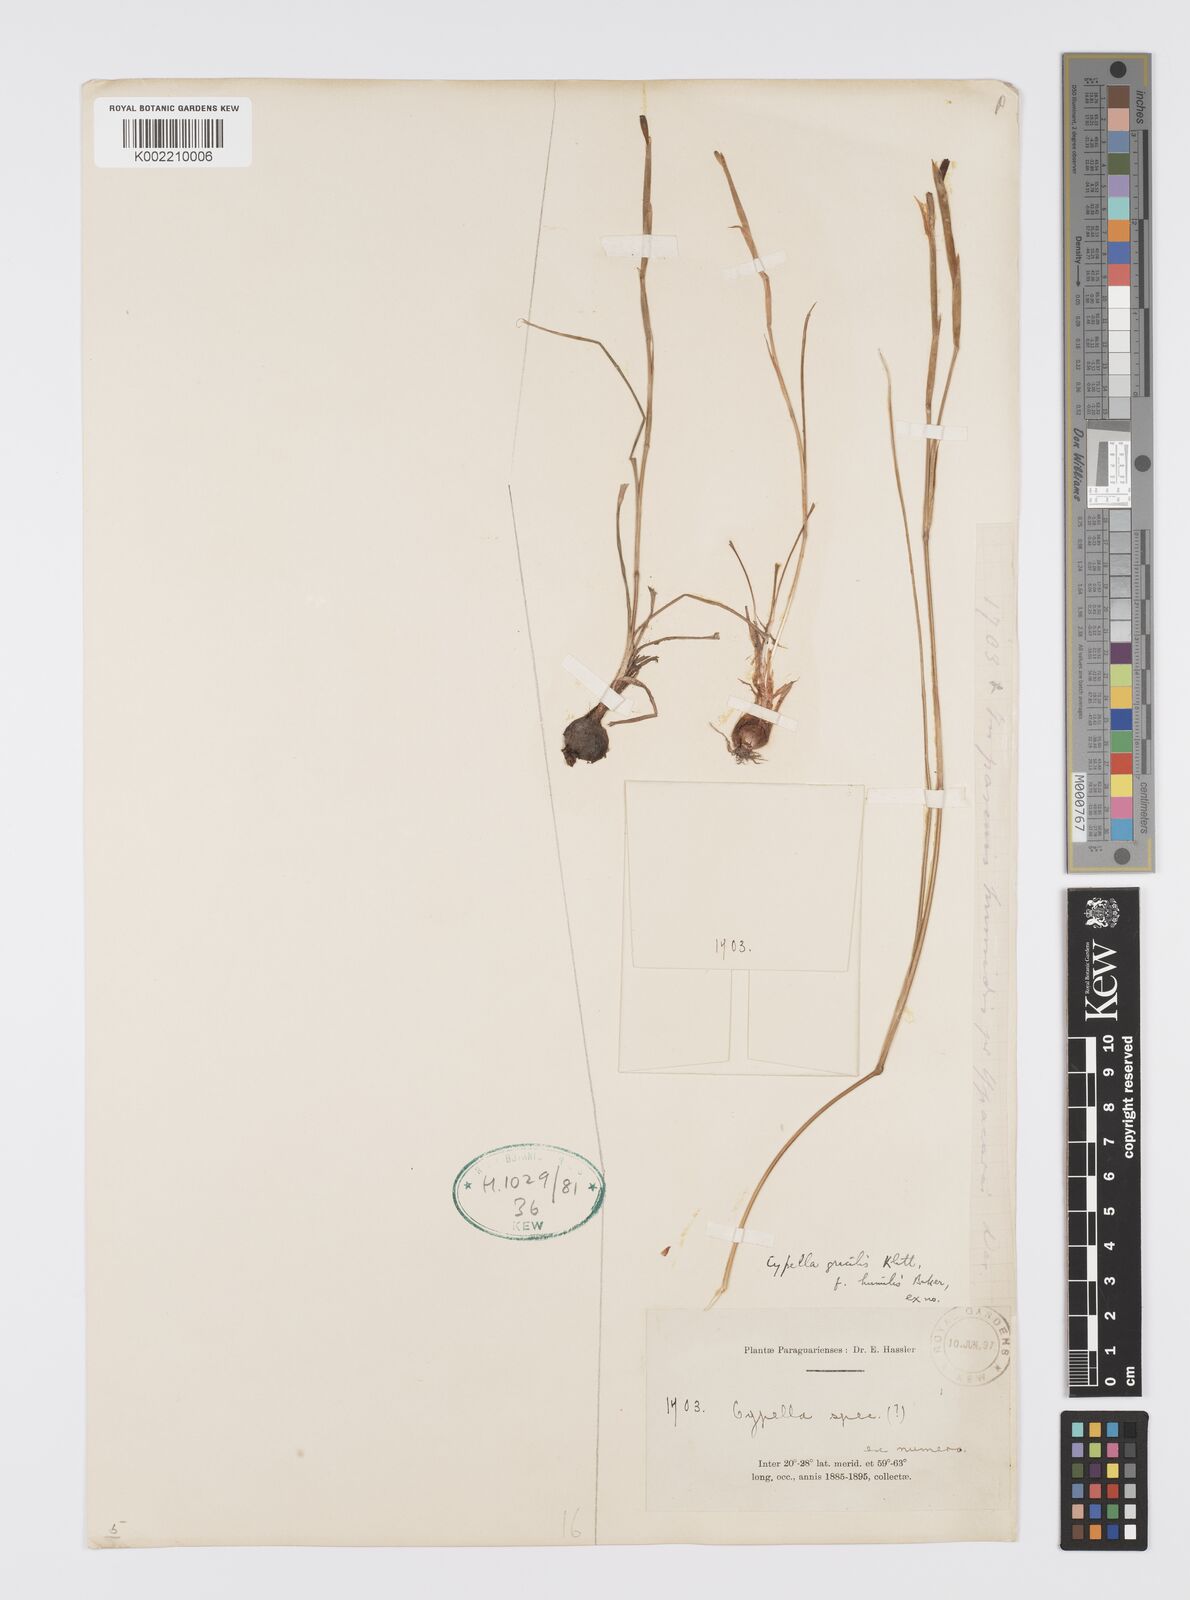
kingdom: Plantae
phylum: Tracheophyta
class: Liliopsida
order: Asparagales
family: Iridaceae
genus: Trimezia
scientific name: Trimezia gracilis
